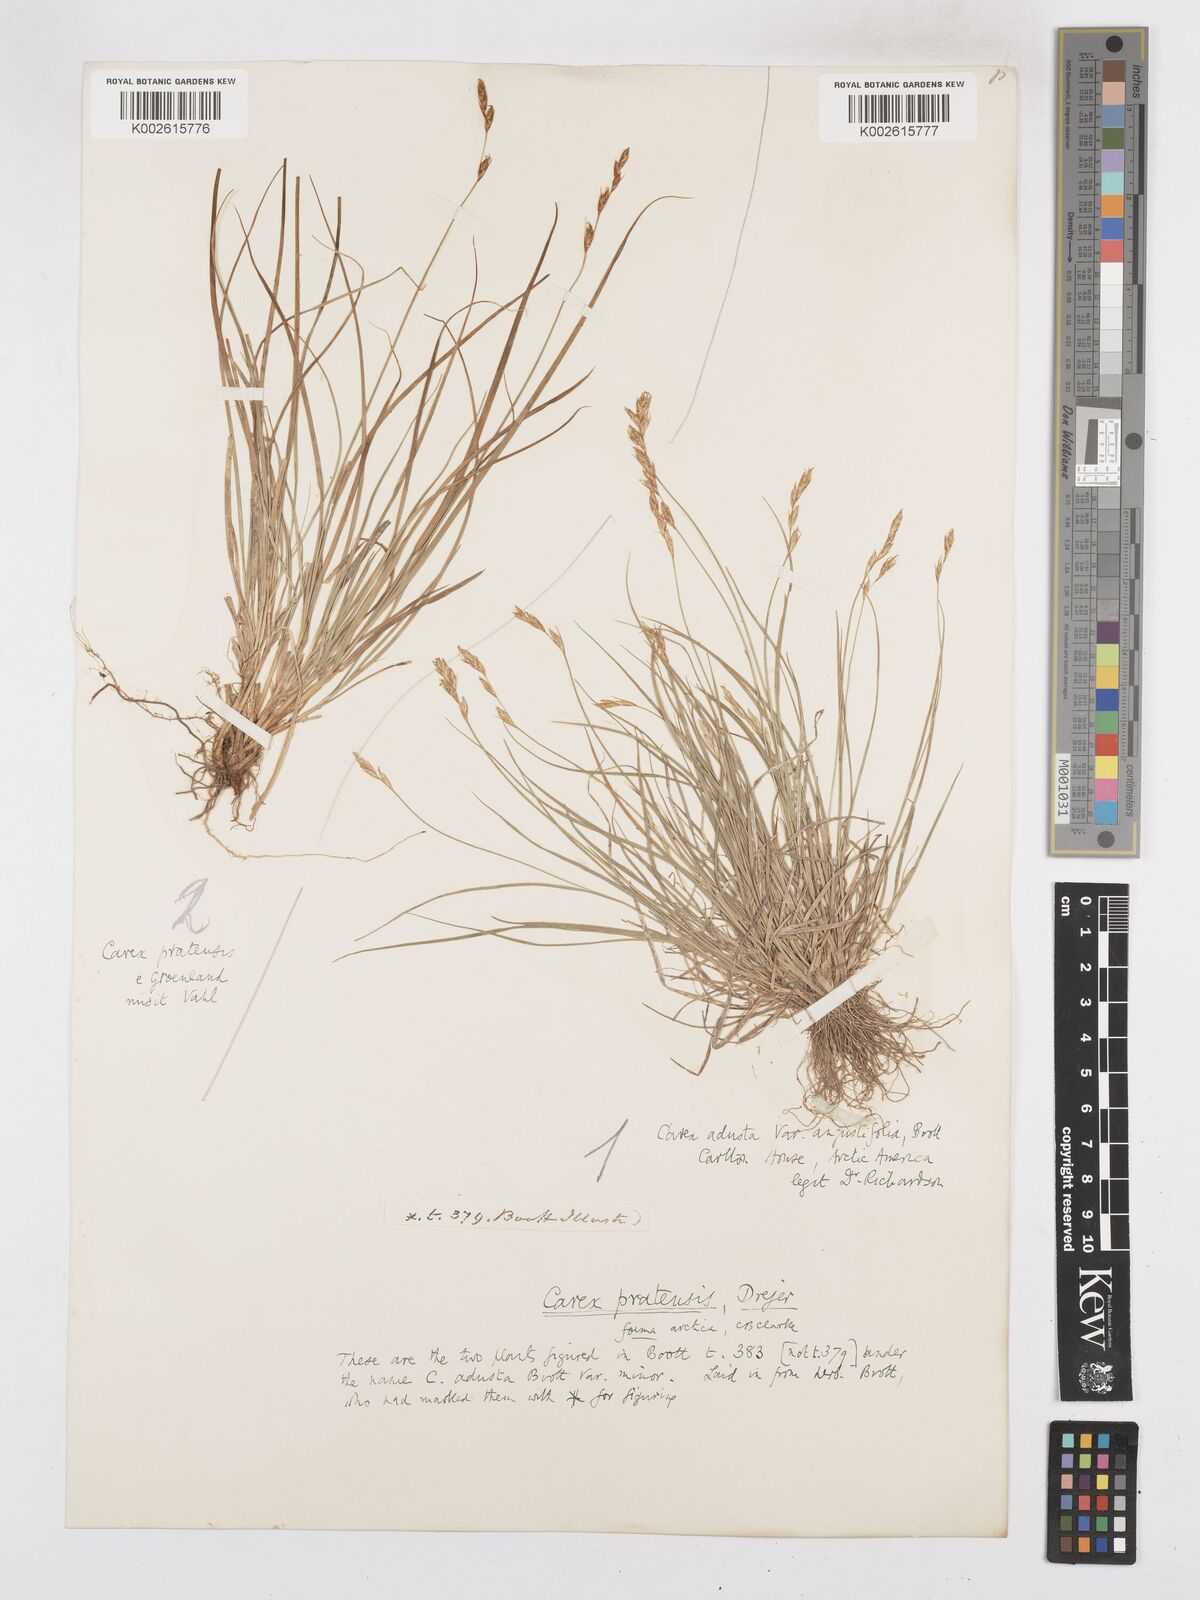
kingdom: Plantae
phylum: Tracheophyta
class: Liliopsida
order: Poales
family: Cyperaceae
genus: Carex
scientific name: Carex praticola
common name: Large-fruited oval sedge
